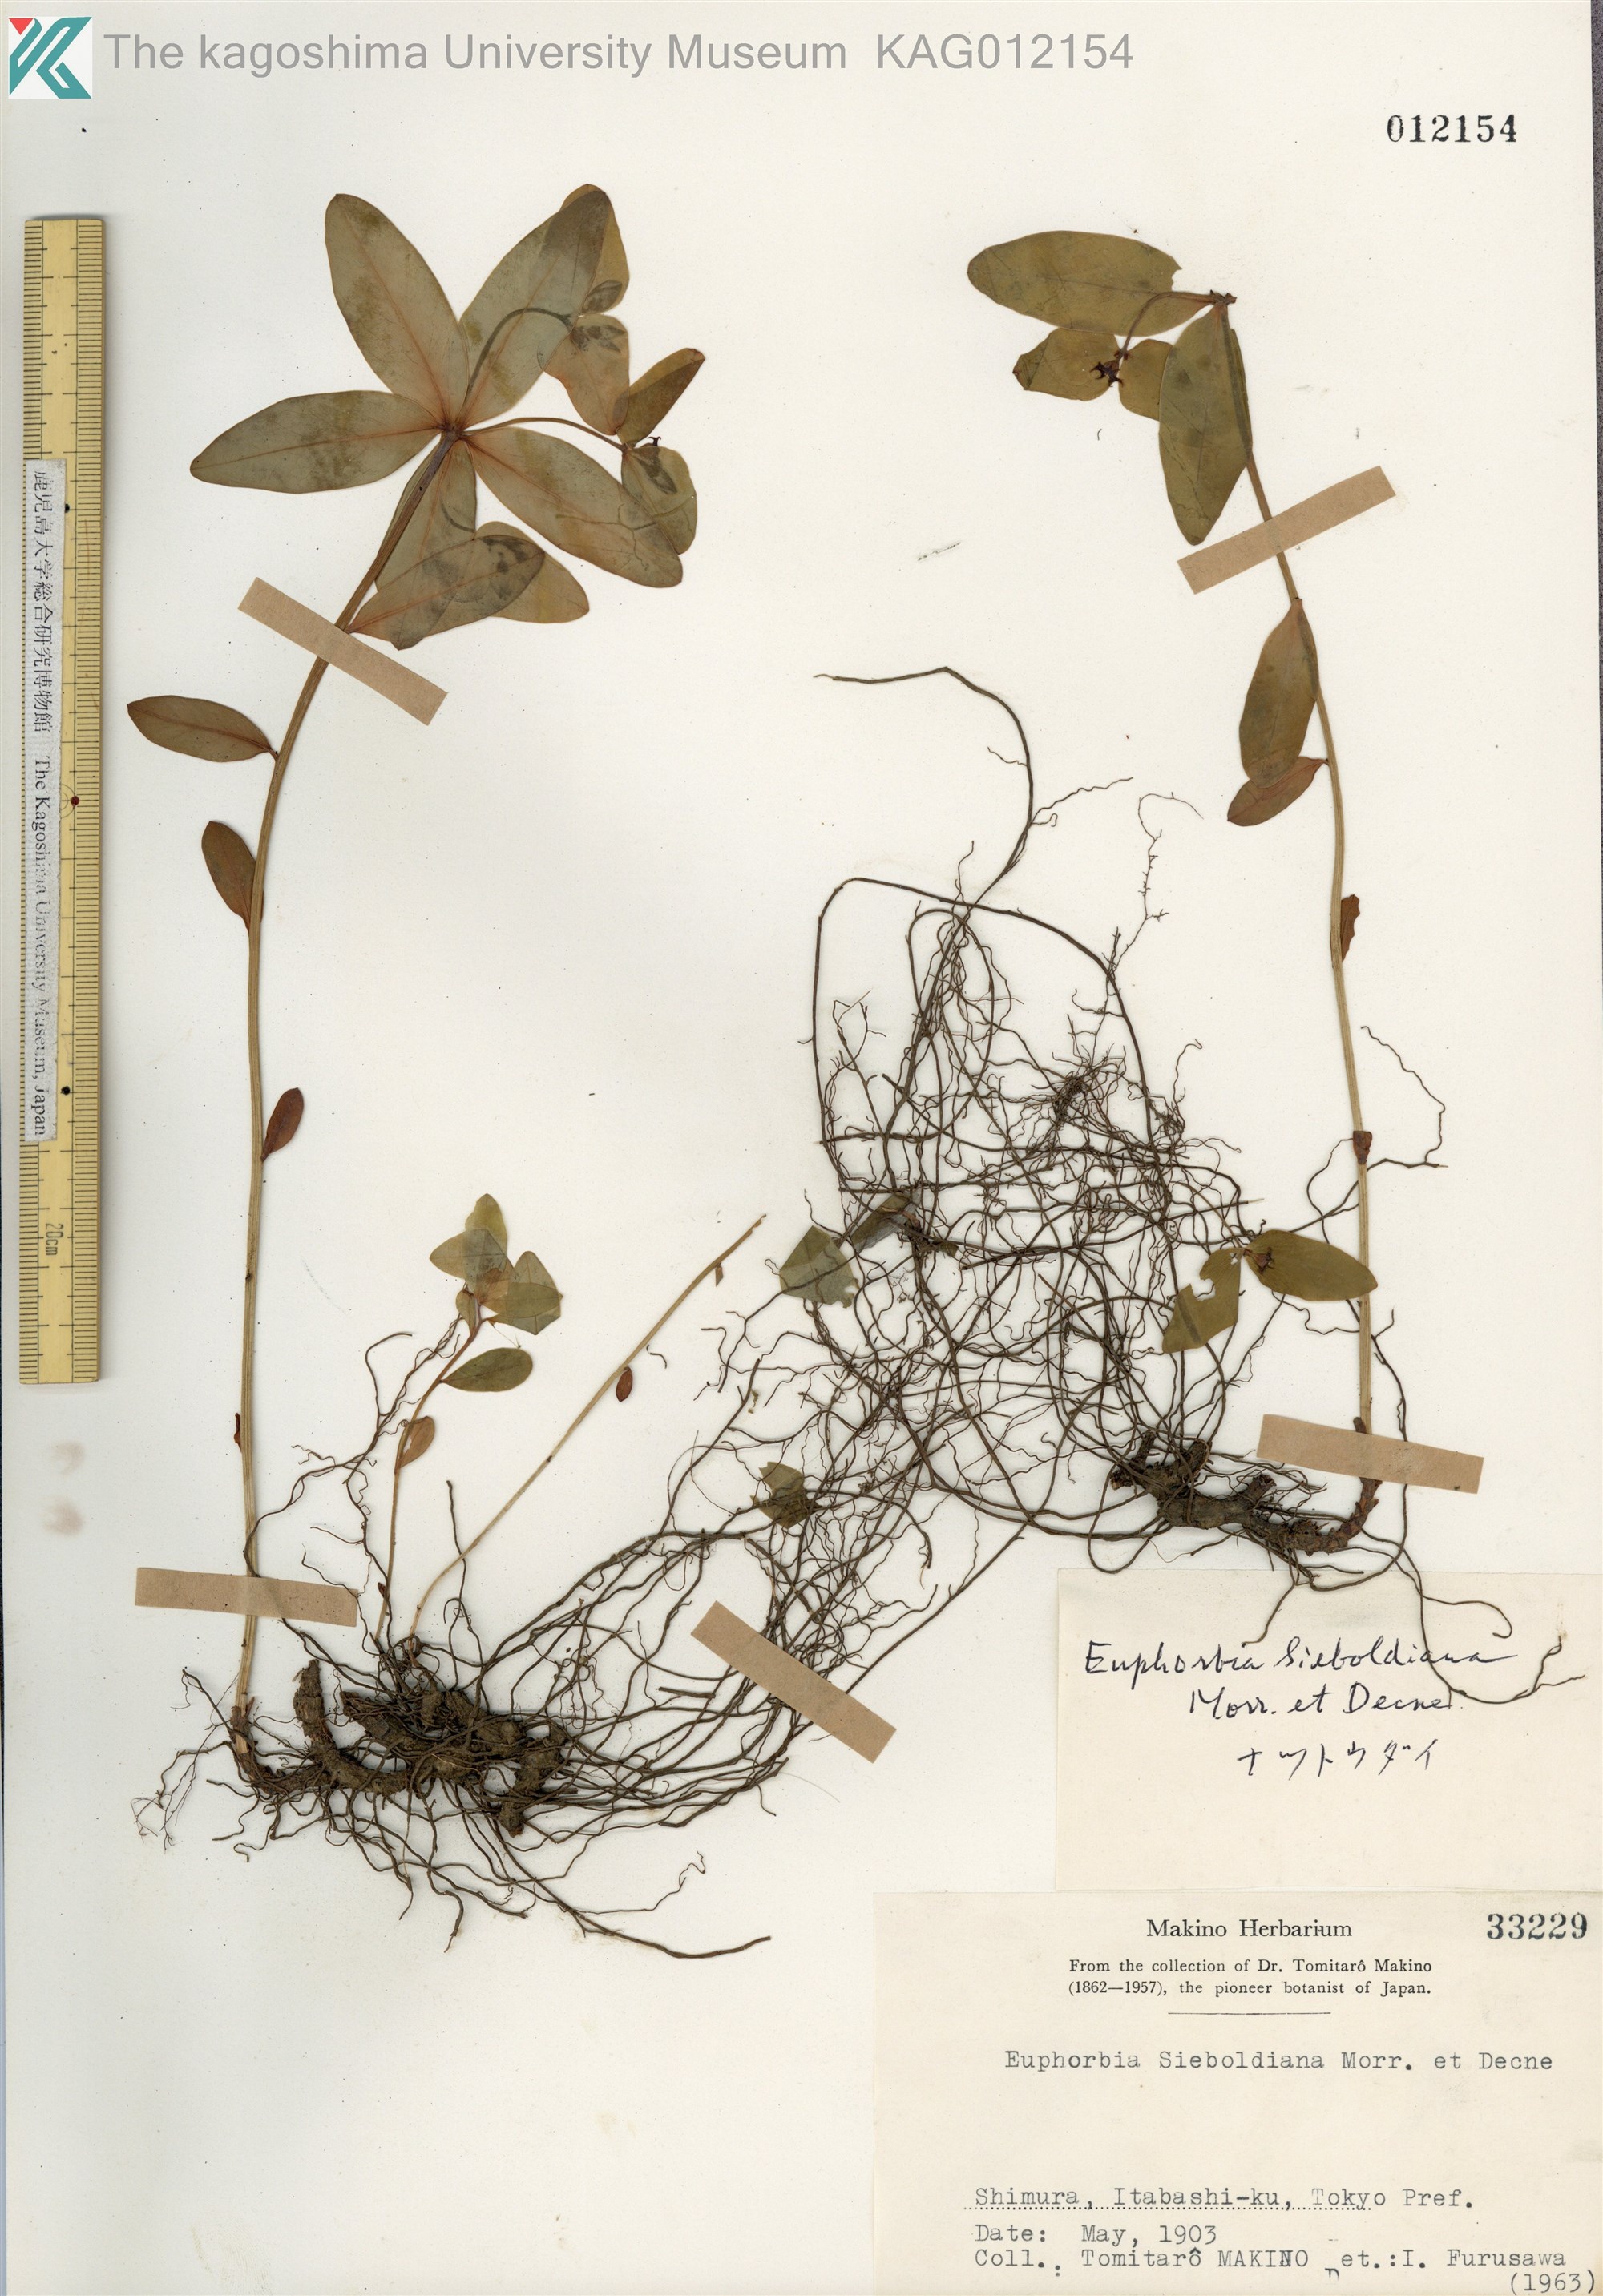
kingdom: Plantae
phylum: Tracheophyta
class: Magnoliopsida
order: Malpighiales
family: Euphorbiaceae
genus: Euphorbia
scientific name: Euphorbia sieboldiana
